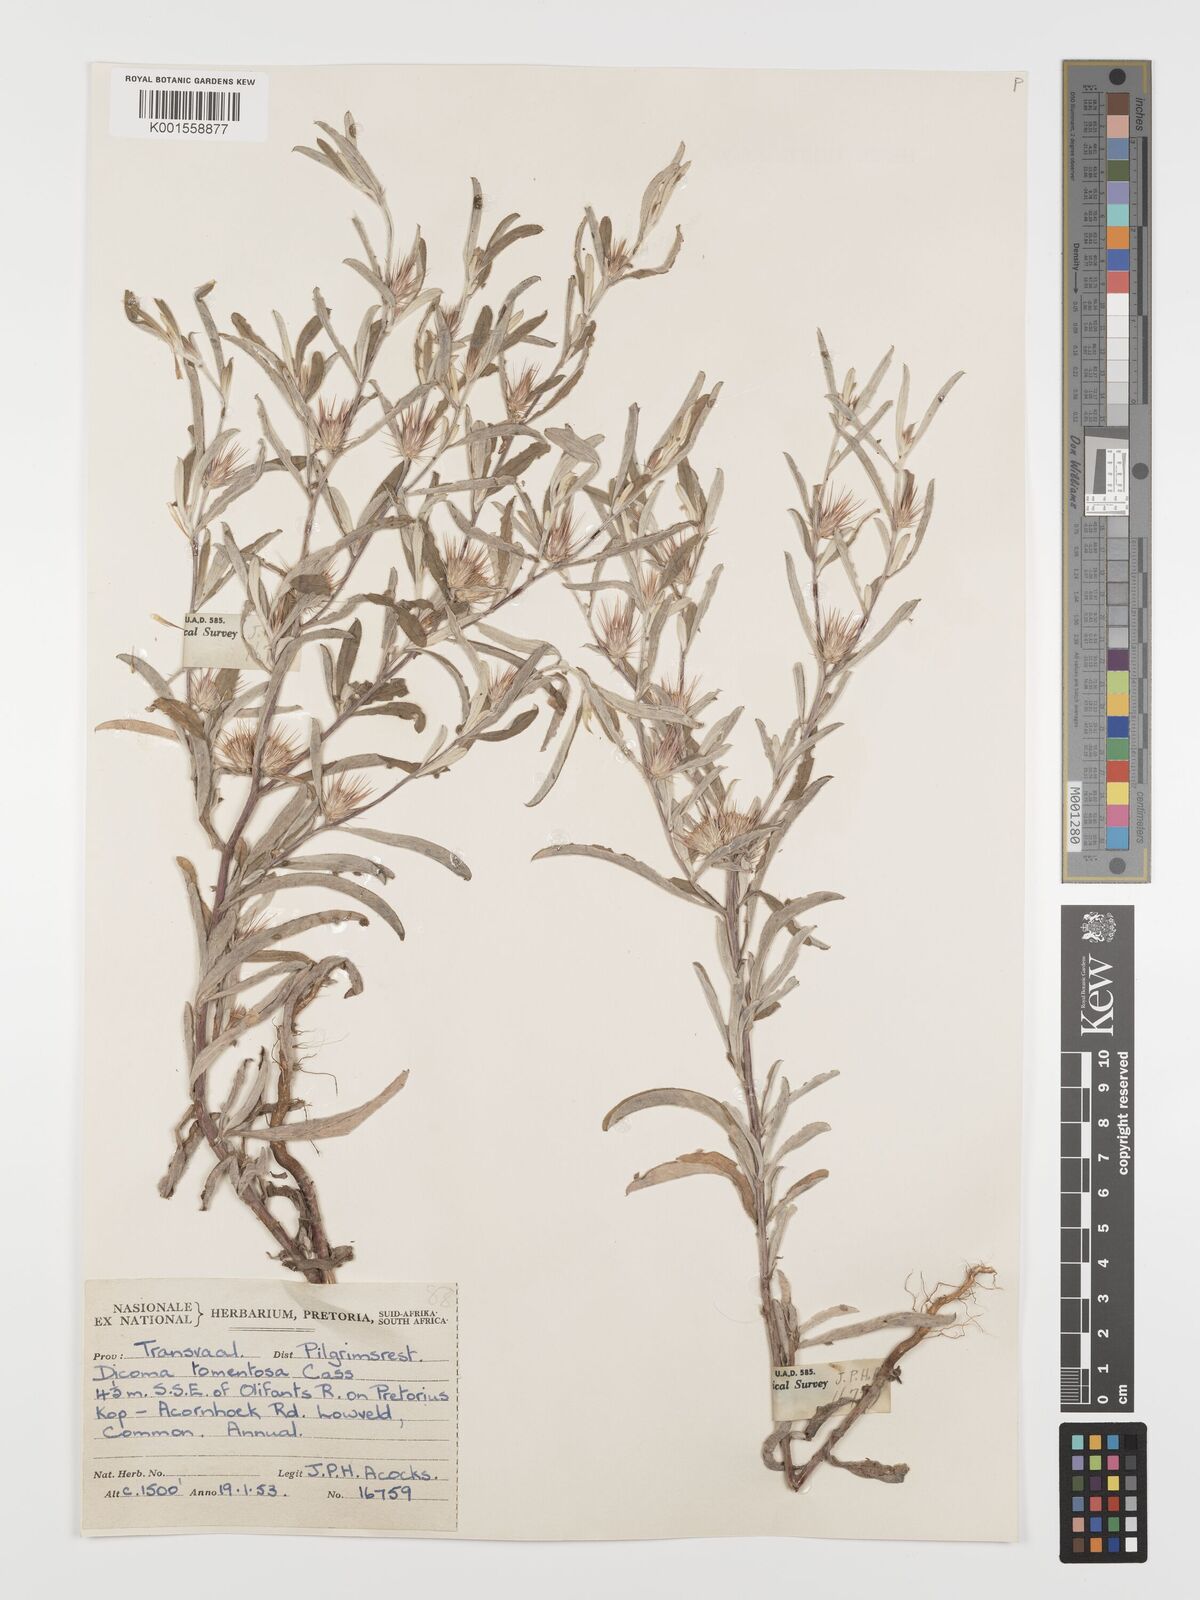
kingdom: Plantae
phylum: Tracheophyta
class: Magnoliopsida
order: Asterales
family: Asteraceae
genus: Dicoma
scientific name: Dicoma tomentosa
